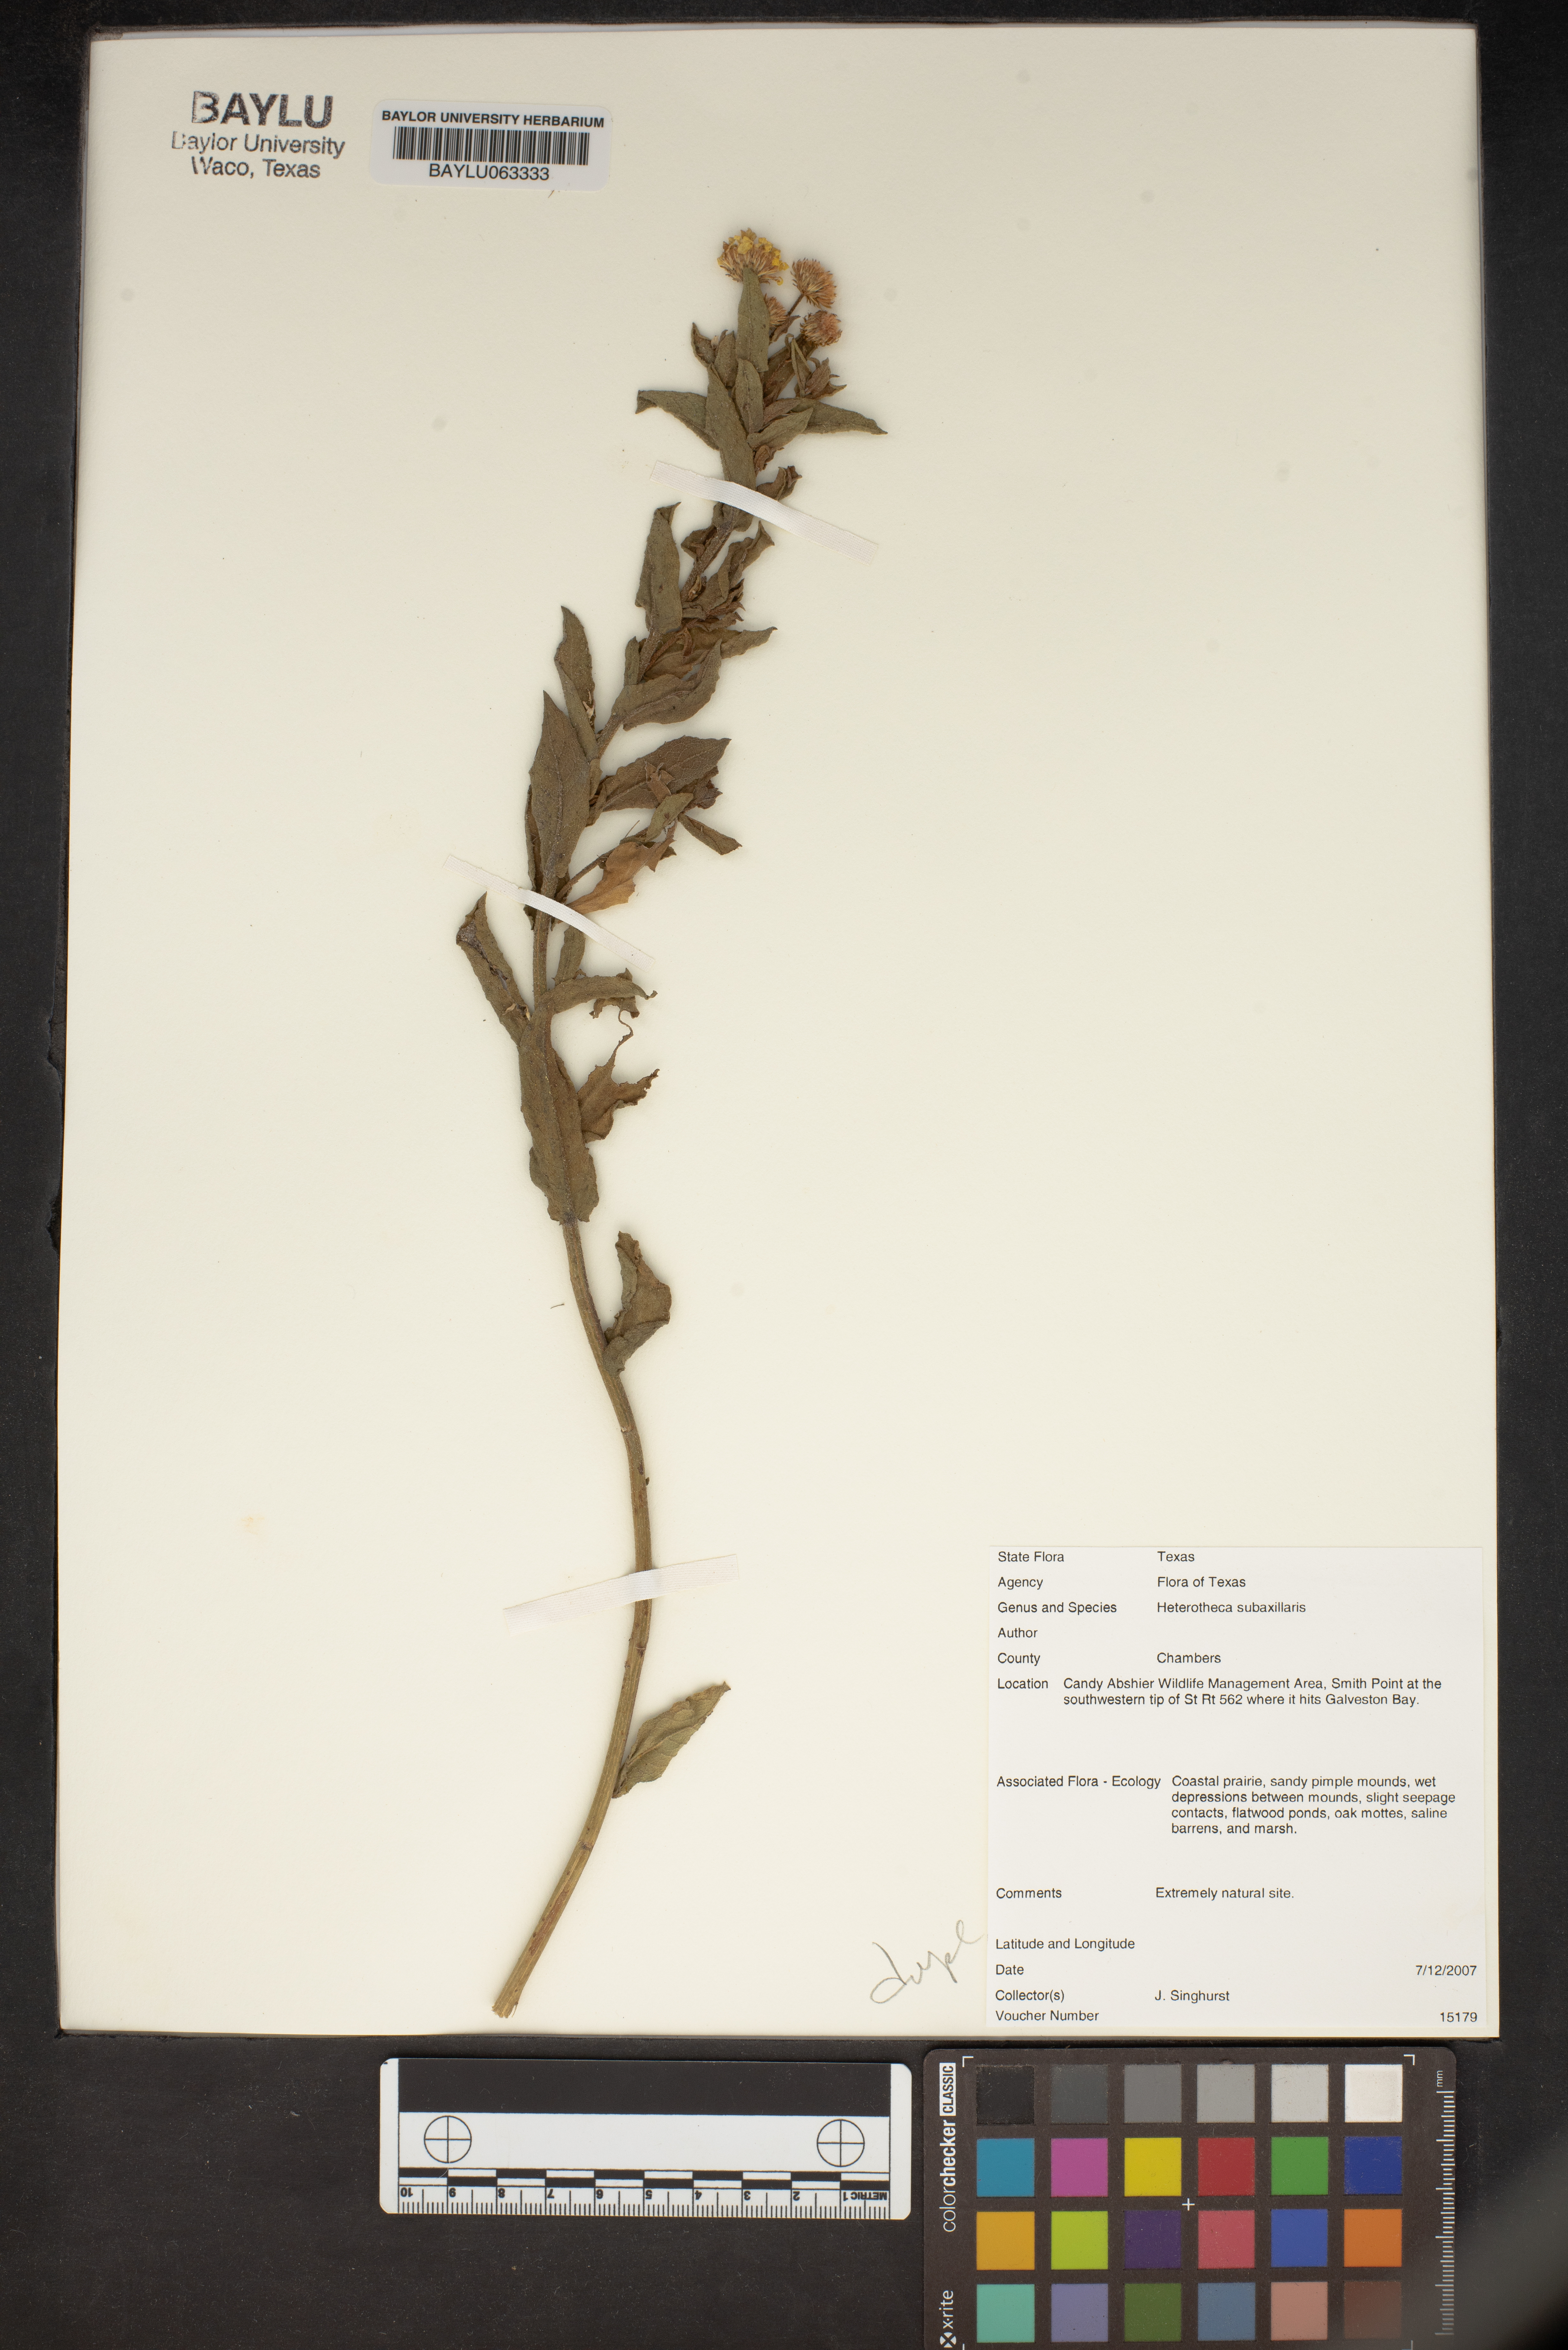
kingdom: Plantae
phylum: Tracheophyta
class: Magnoliopsida
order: Asterales
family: Asteraceae
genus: Heterotheca
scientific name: Heterotheca subaxillaris
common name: Camphorweed
